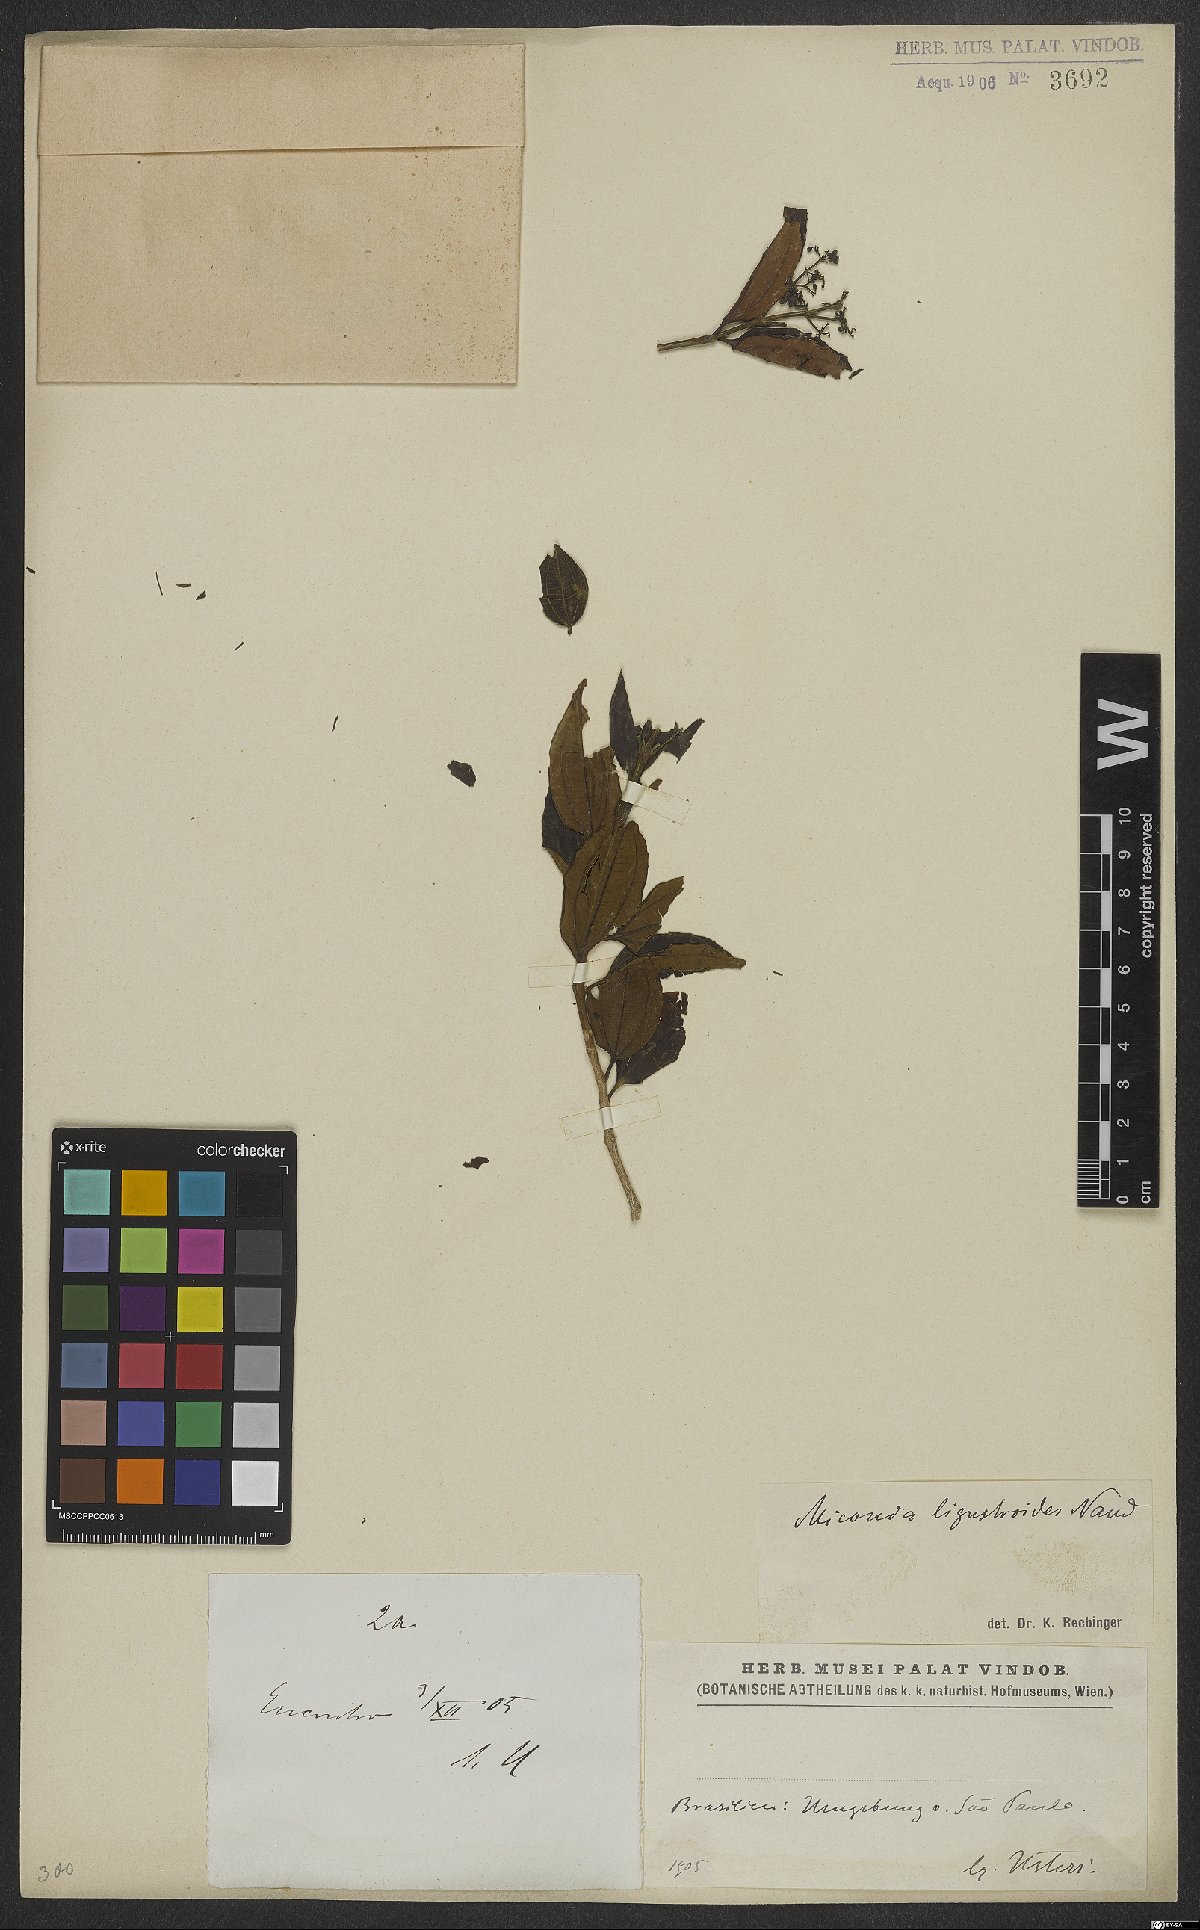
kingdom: Plantae
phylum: Tracheophyta
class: Magnoliopsida
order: Myrtales
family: Melastomataceae
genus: Miconia
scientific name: Miconia ligustroides
